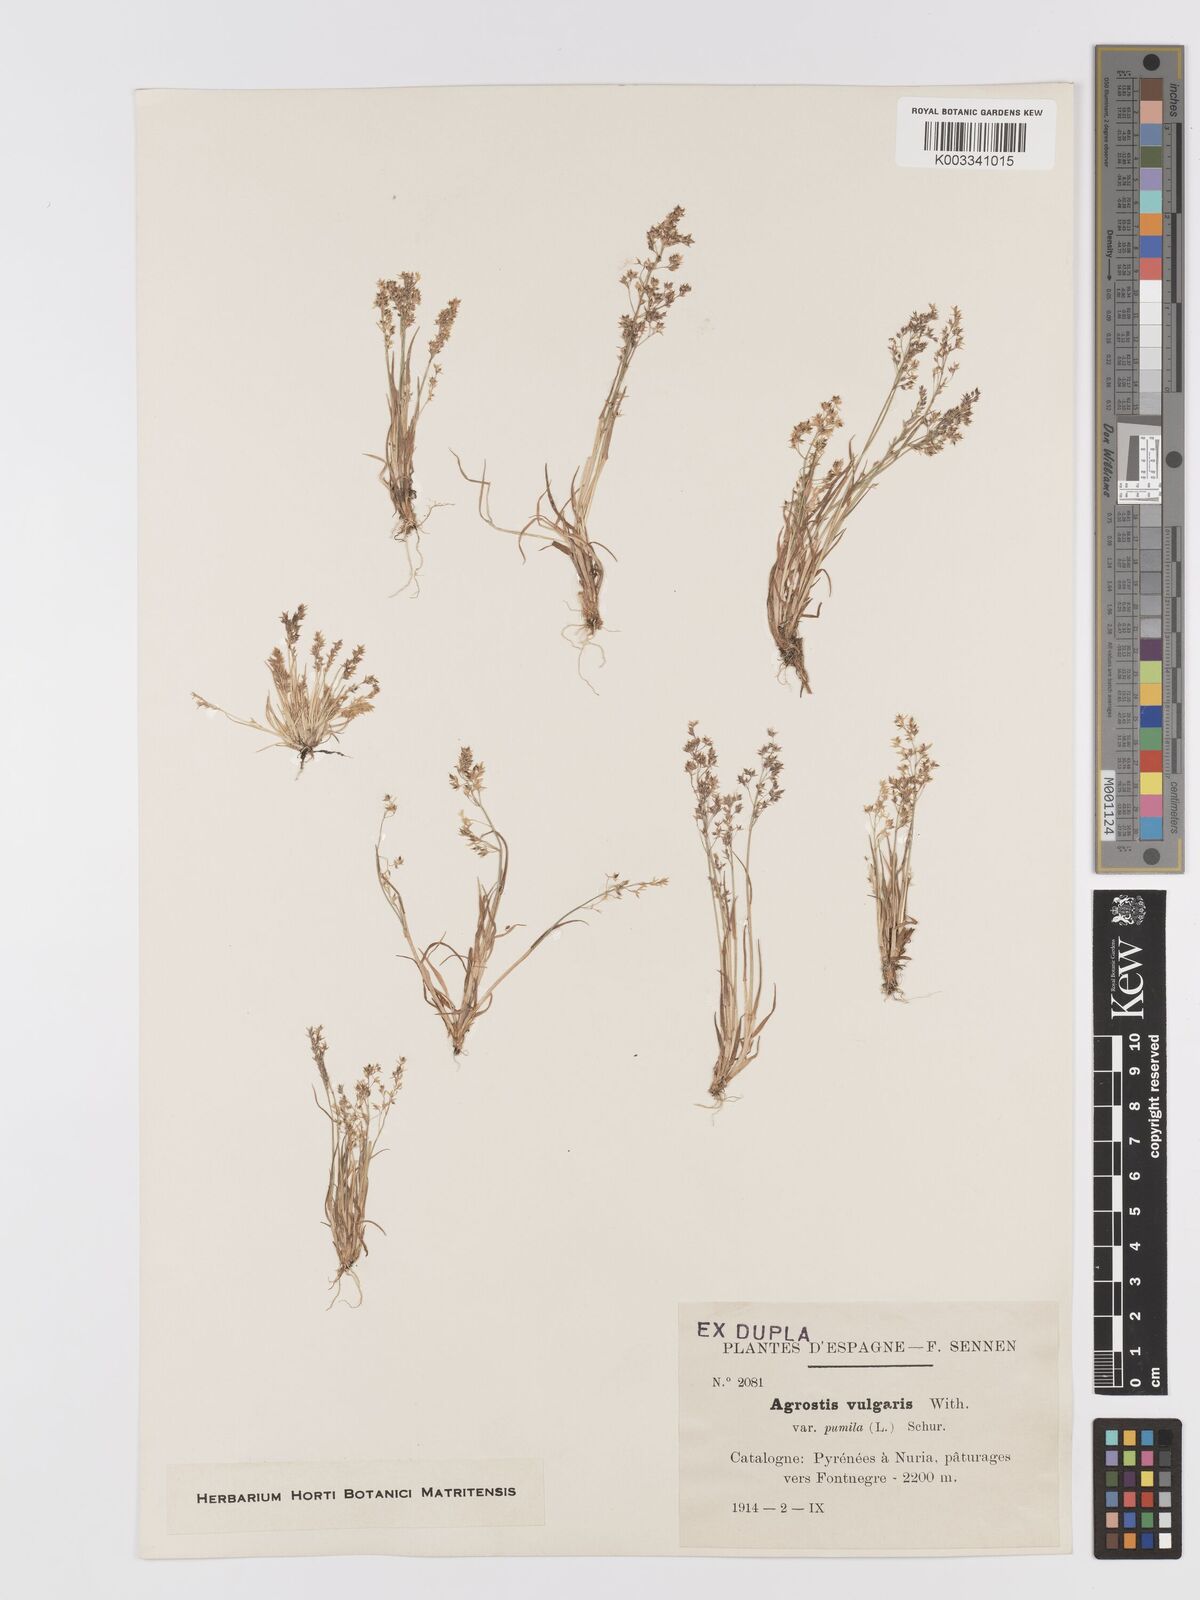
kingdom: Plantae
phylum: Tracheophyta
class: Liliopsida
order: Poales
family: Poaceae
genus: Agrostis
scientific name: Agrostis capillaris
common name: Colonial bentgrass
